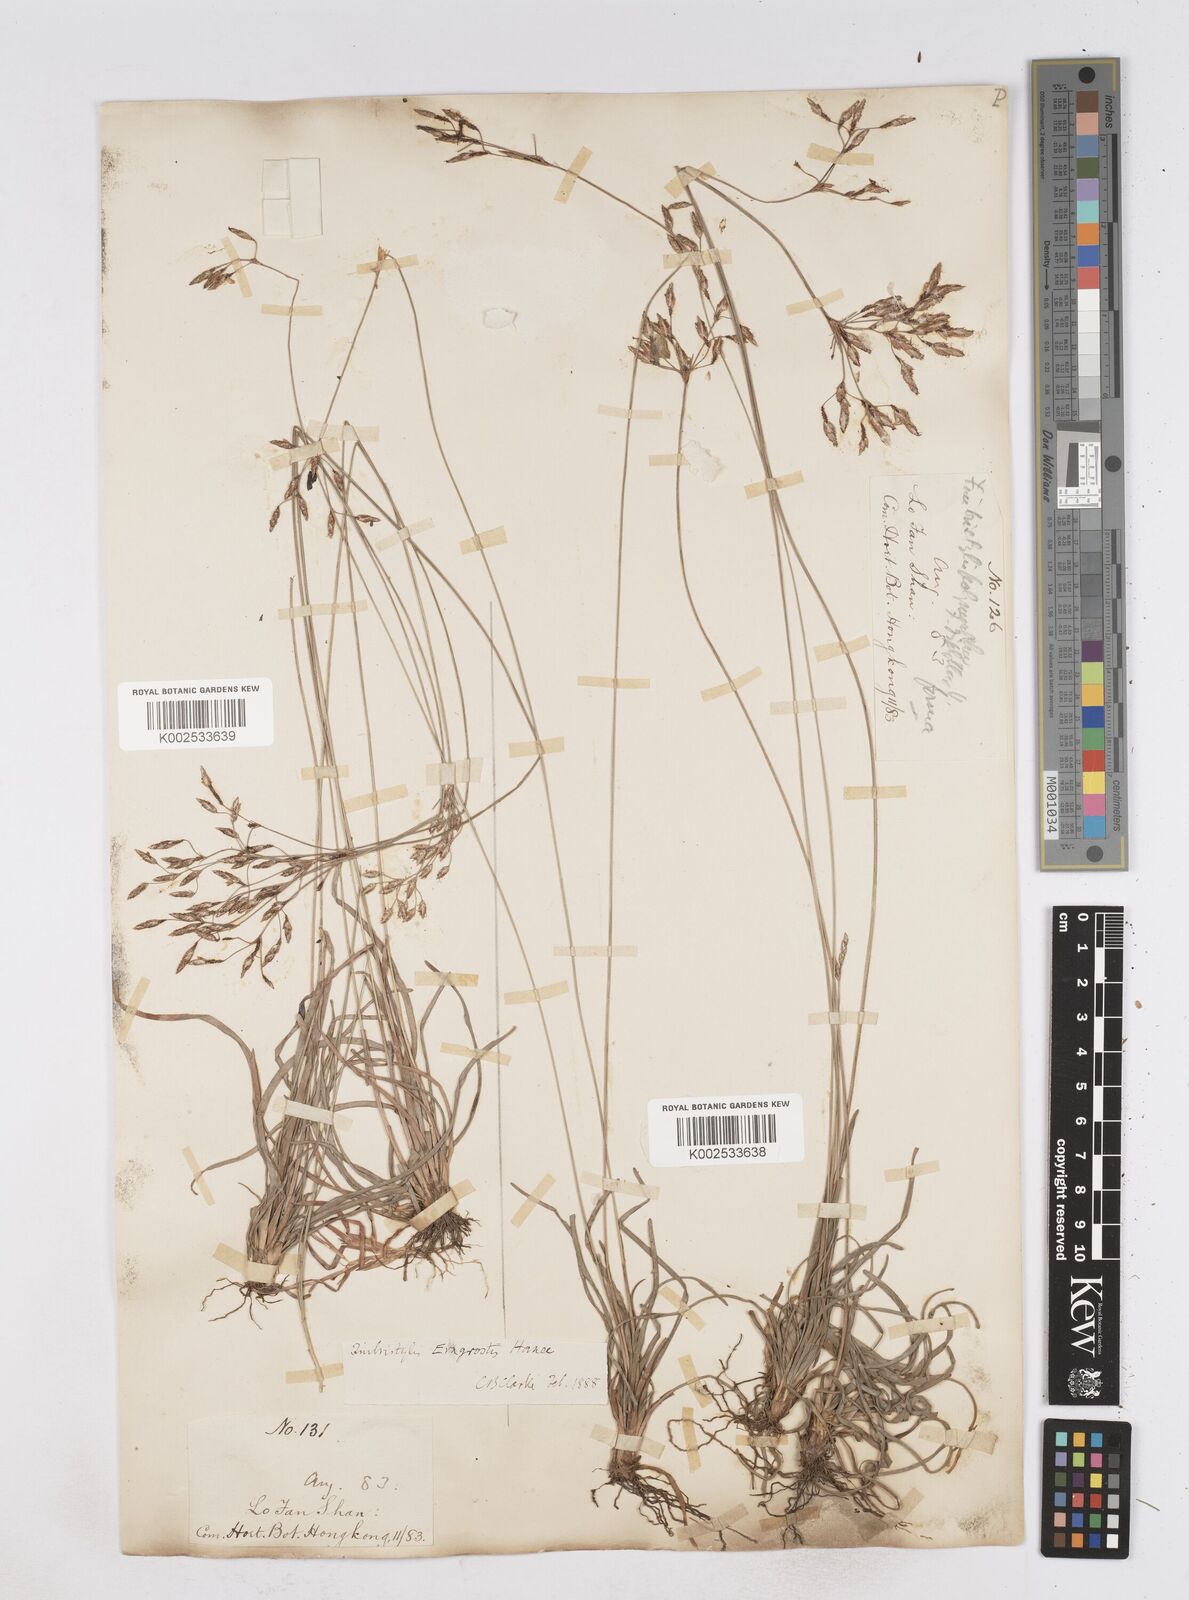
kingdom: Plantae
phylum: Tracheophyta
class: Liliopsida
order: Poales
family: Cyperaceae
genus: Fimbristylis
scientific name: Fimbristylis eragrostis
